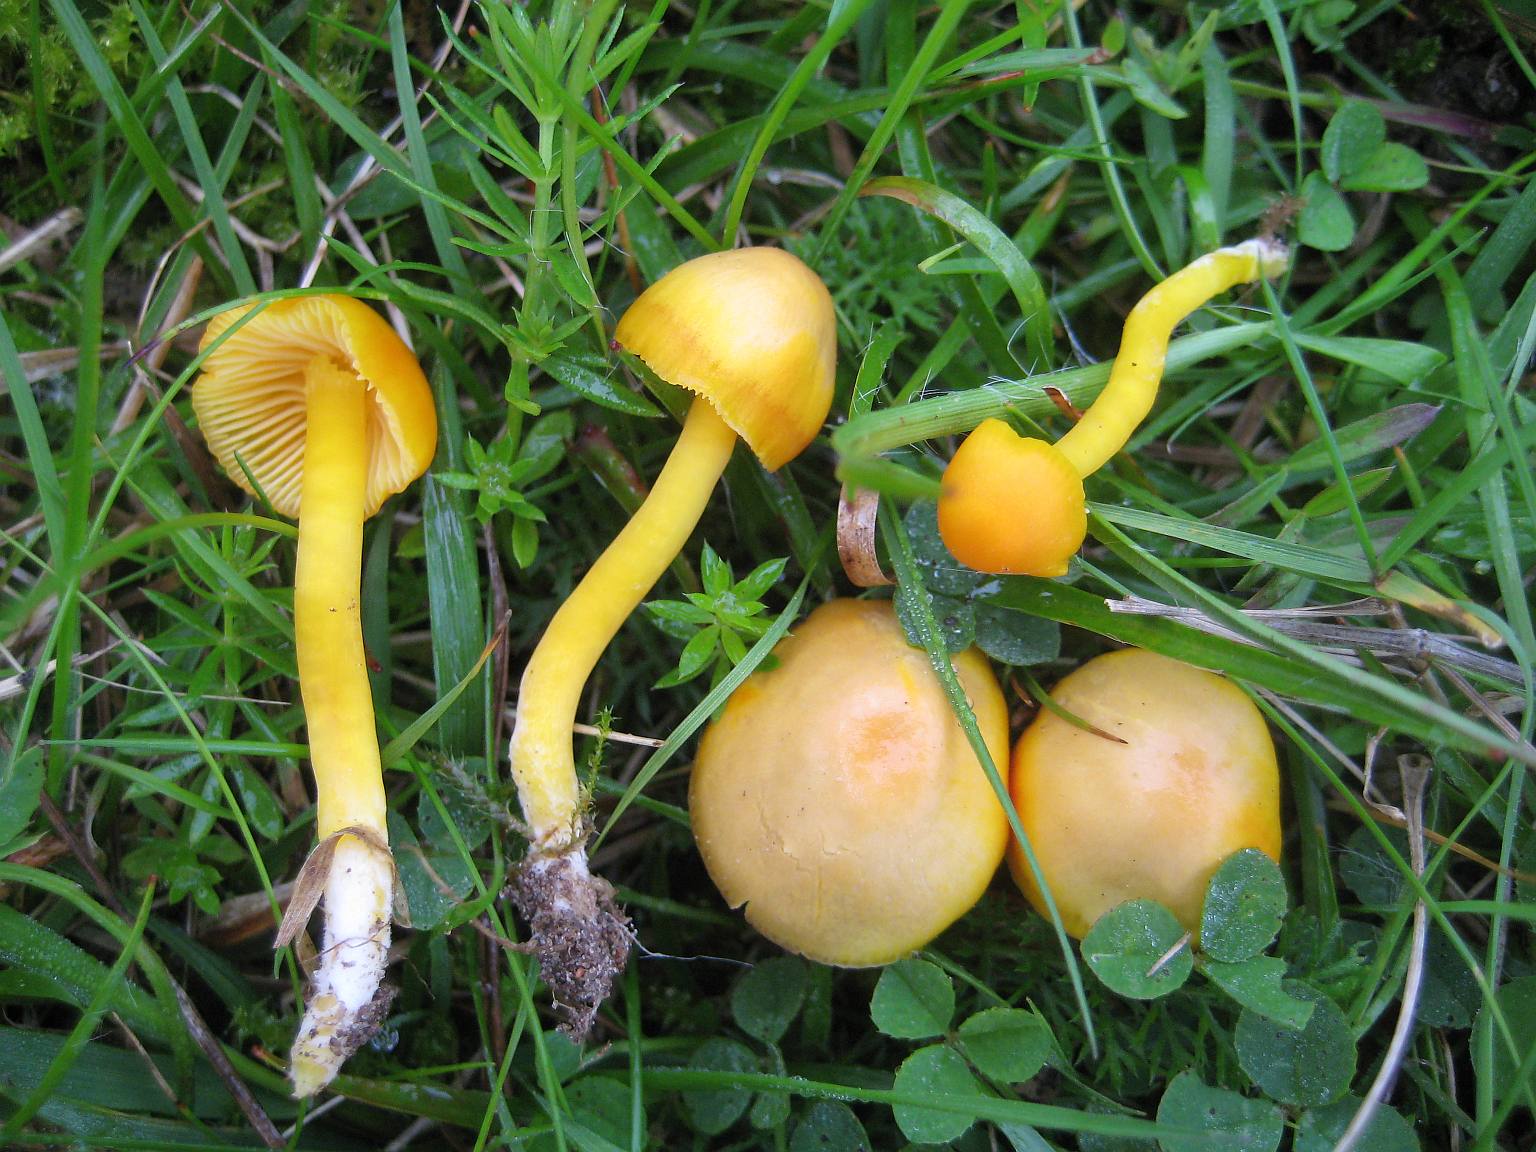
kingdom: Fungi
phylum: Basidiomycota
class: Agaricomycetes
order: Agaricales
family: Hygrophoraceae
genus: Hygrocybe
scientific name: Hygrocybe ceracea
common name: voksgul vokshat
